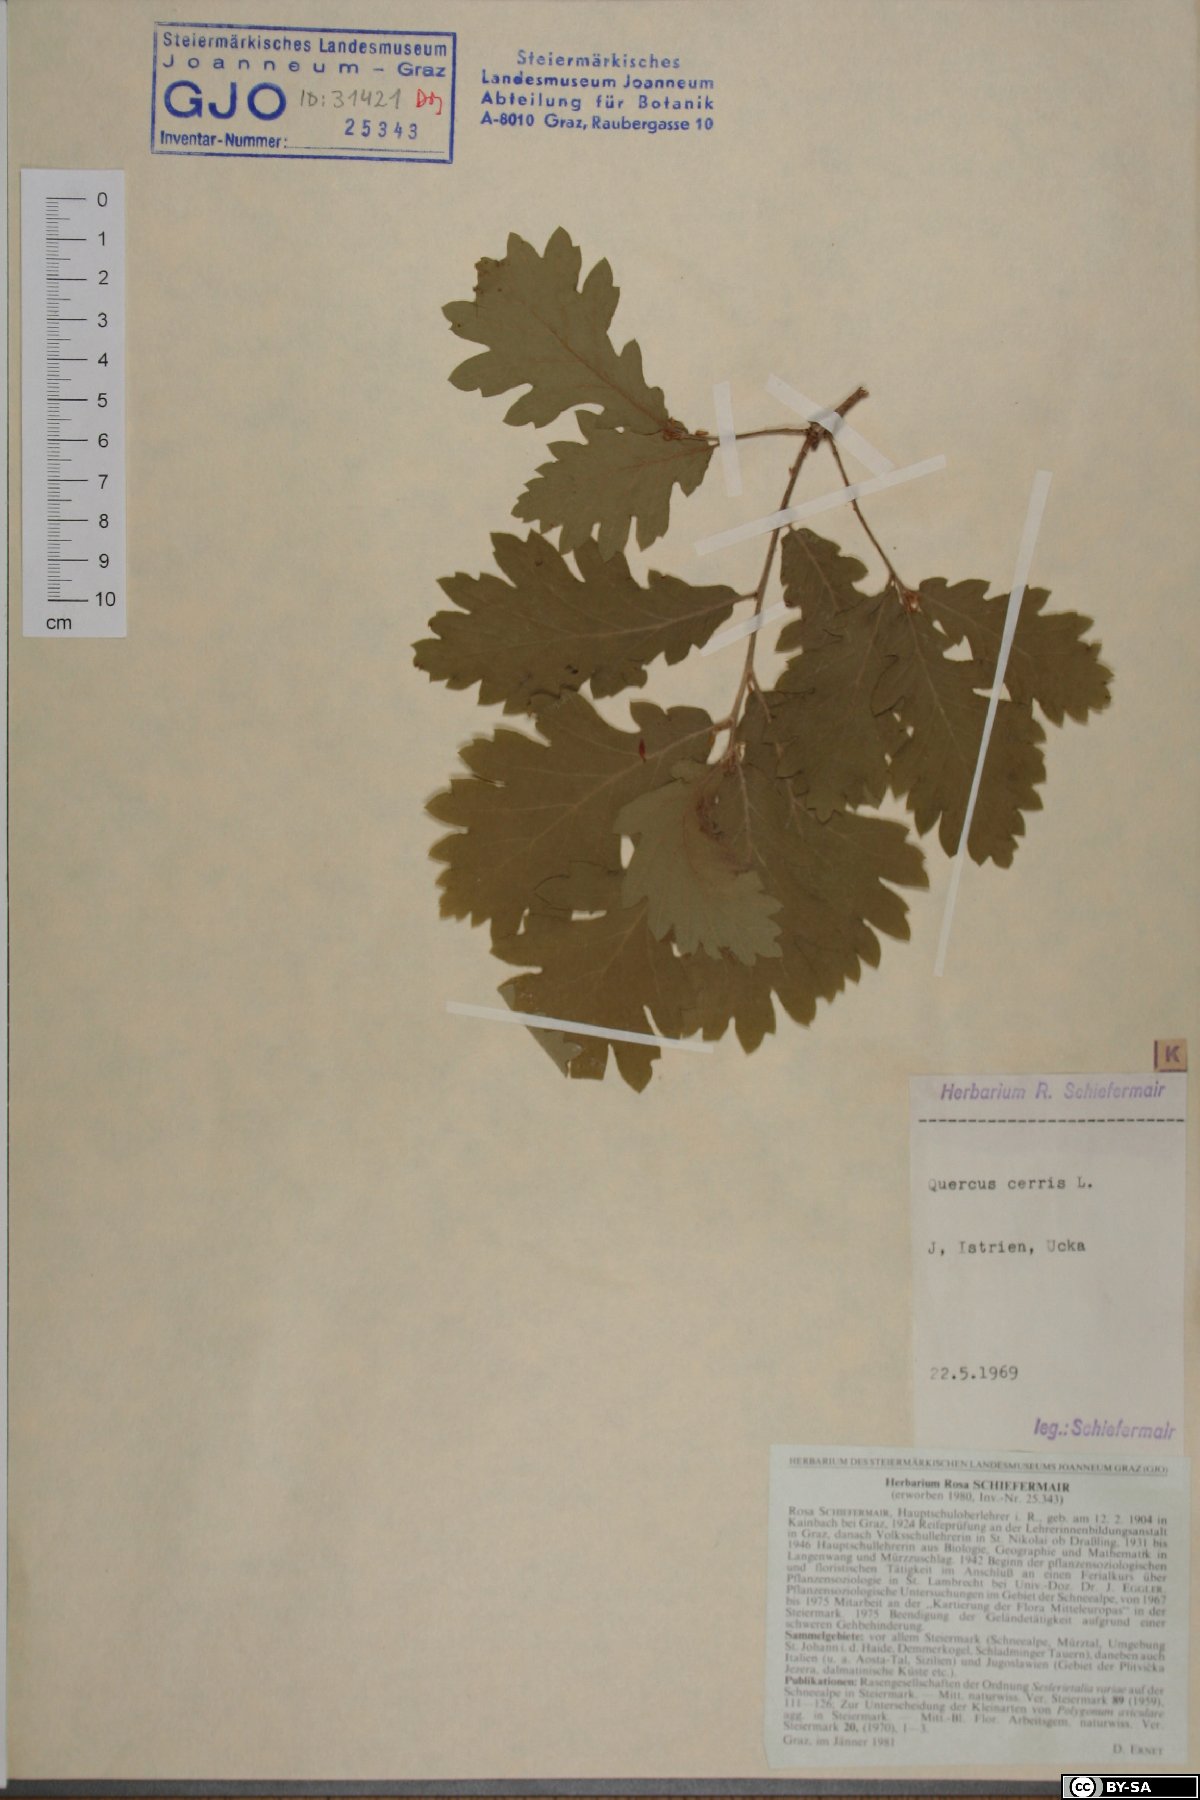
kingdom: Plantae
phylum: Tracheophyta
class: Magnoliopsida
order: Fagales
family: Fagaceae
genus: Quercus
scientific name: Quercus cerris
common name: Turkey oak
